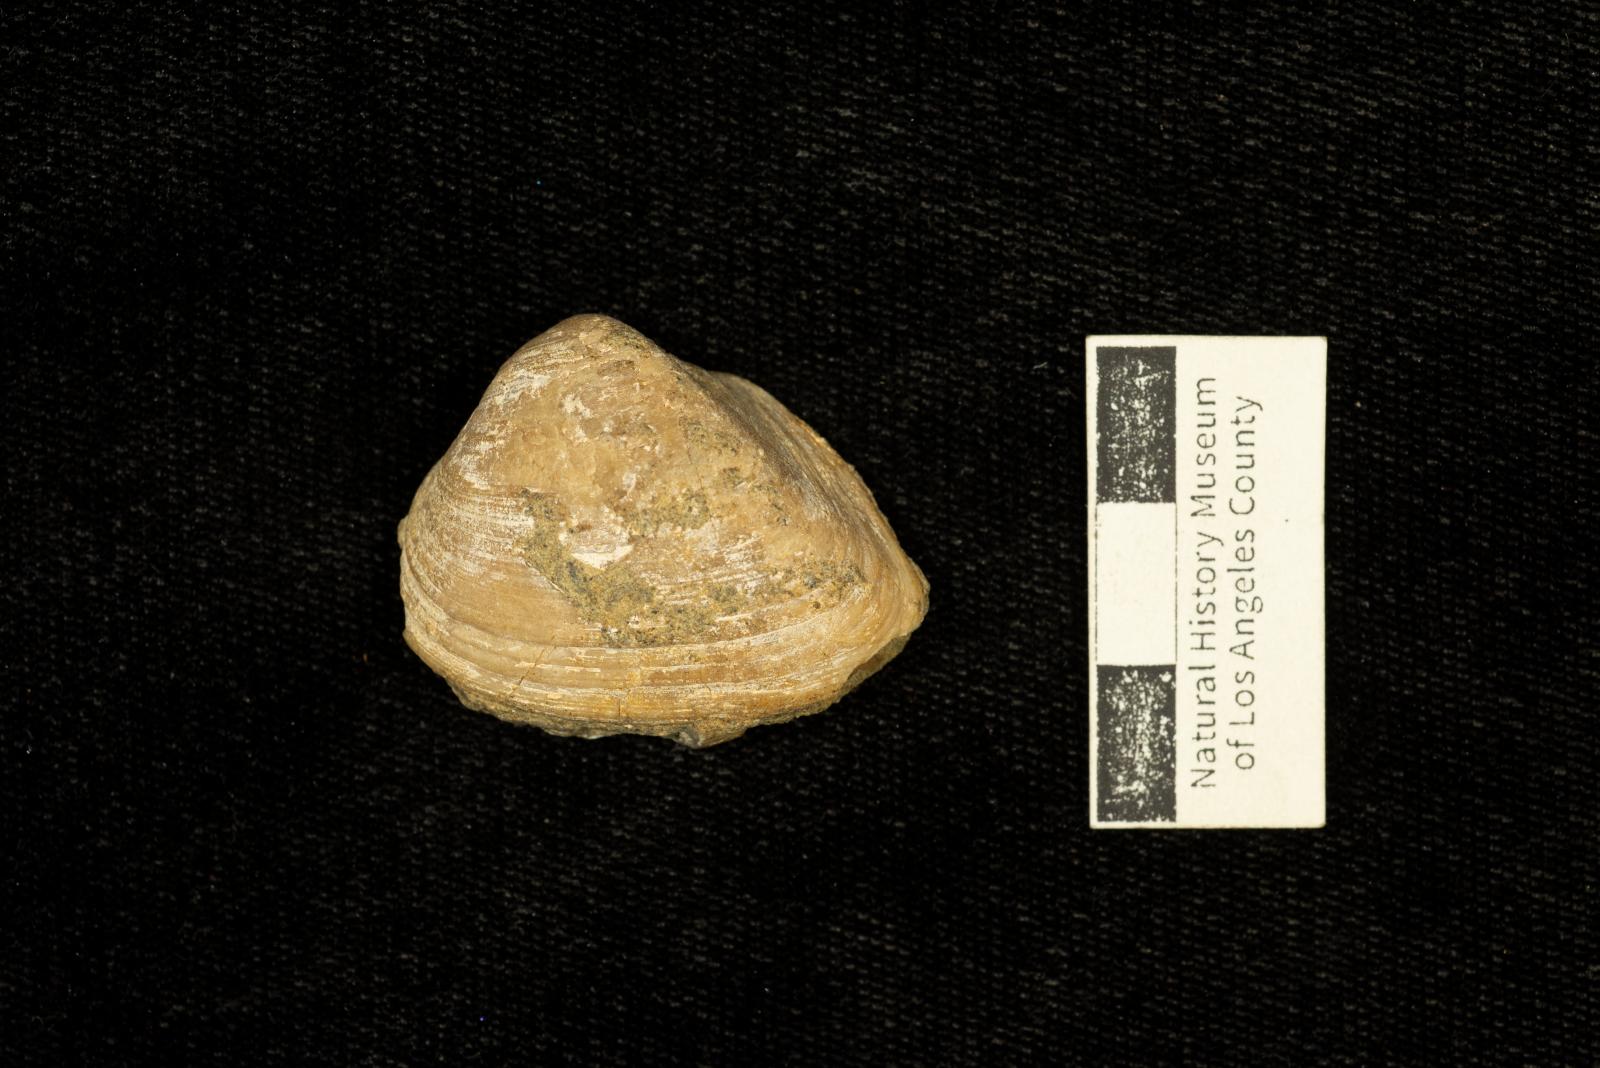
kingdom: Animalia
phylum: Mollusca
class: Bivalvia
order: Arcida
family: Cucullaeidae
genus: Idonearca
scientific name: Idonearca Arca gravida
